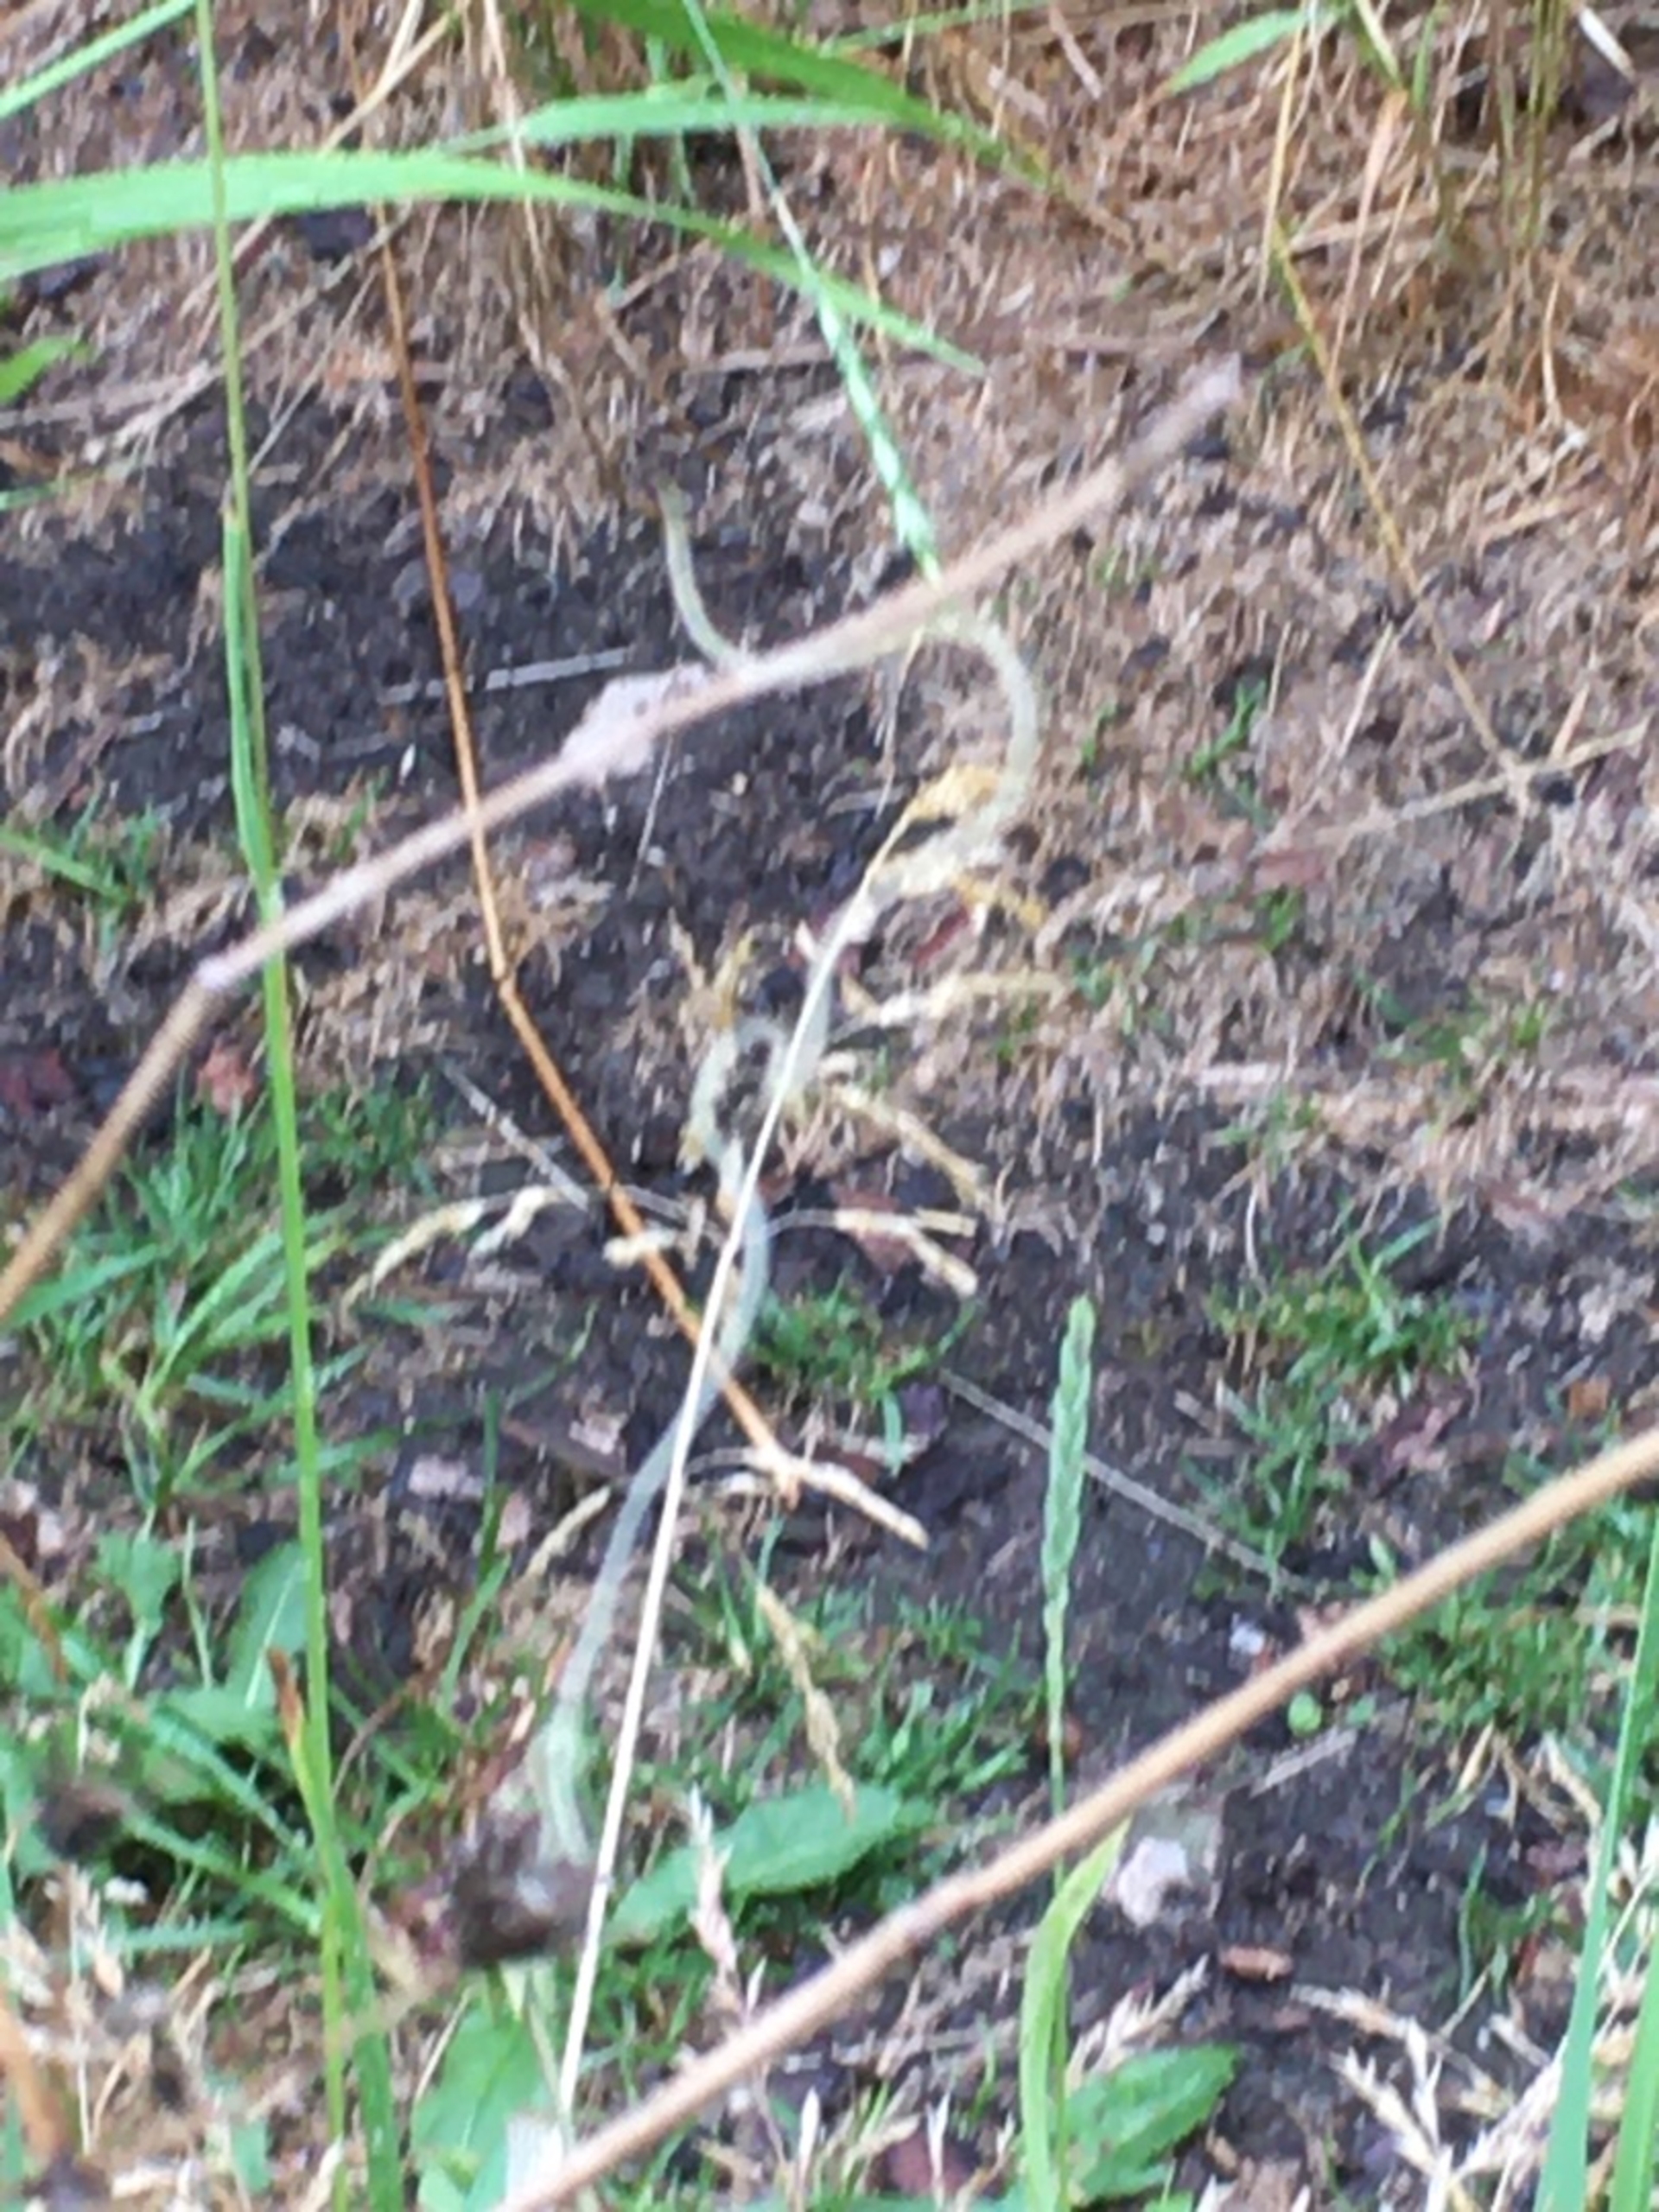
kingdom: Plantae
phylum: Tracheophyta
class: Liliopsida
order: Poales
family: Poaceae
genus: Elymus
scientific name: Elymus repens
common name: Almindelig kvik
